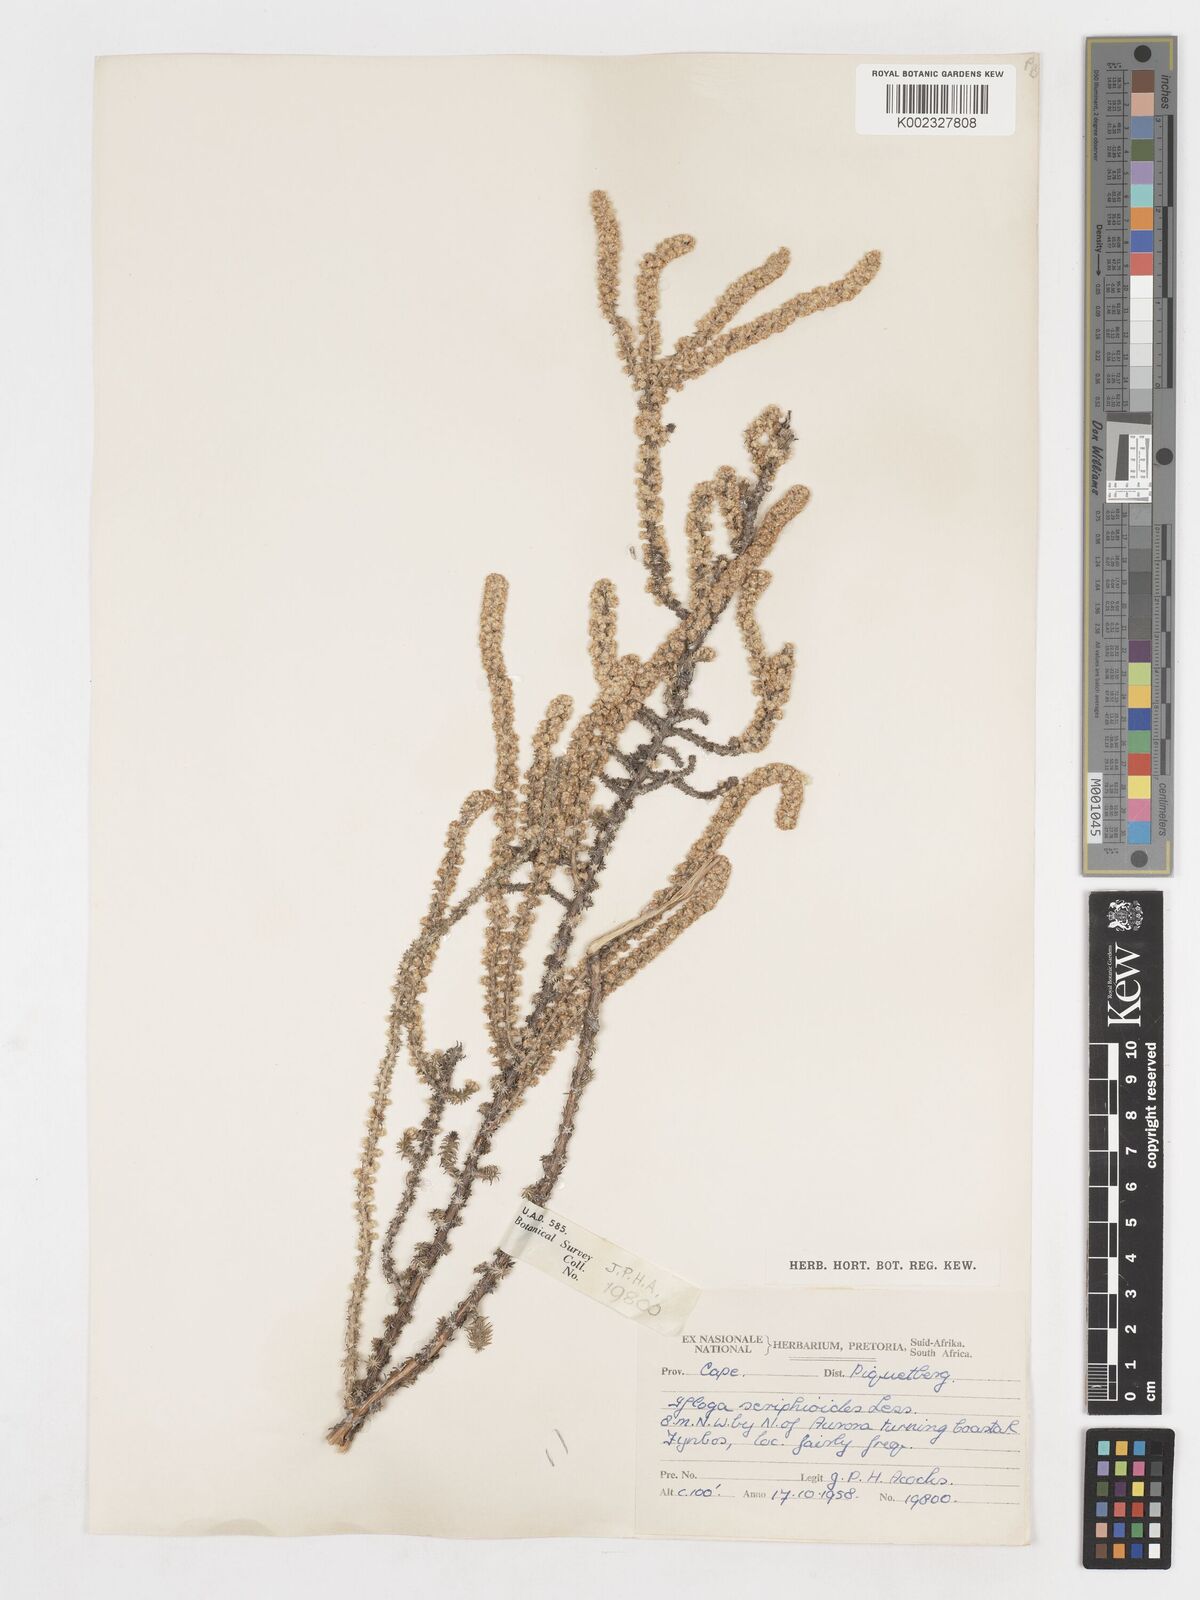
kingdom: Plantae
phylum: Tracheophyta
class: Magnoliopsida
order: Asterales
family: Asteraceae
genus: Ifloga
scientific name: Ifloga ambigua
